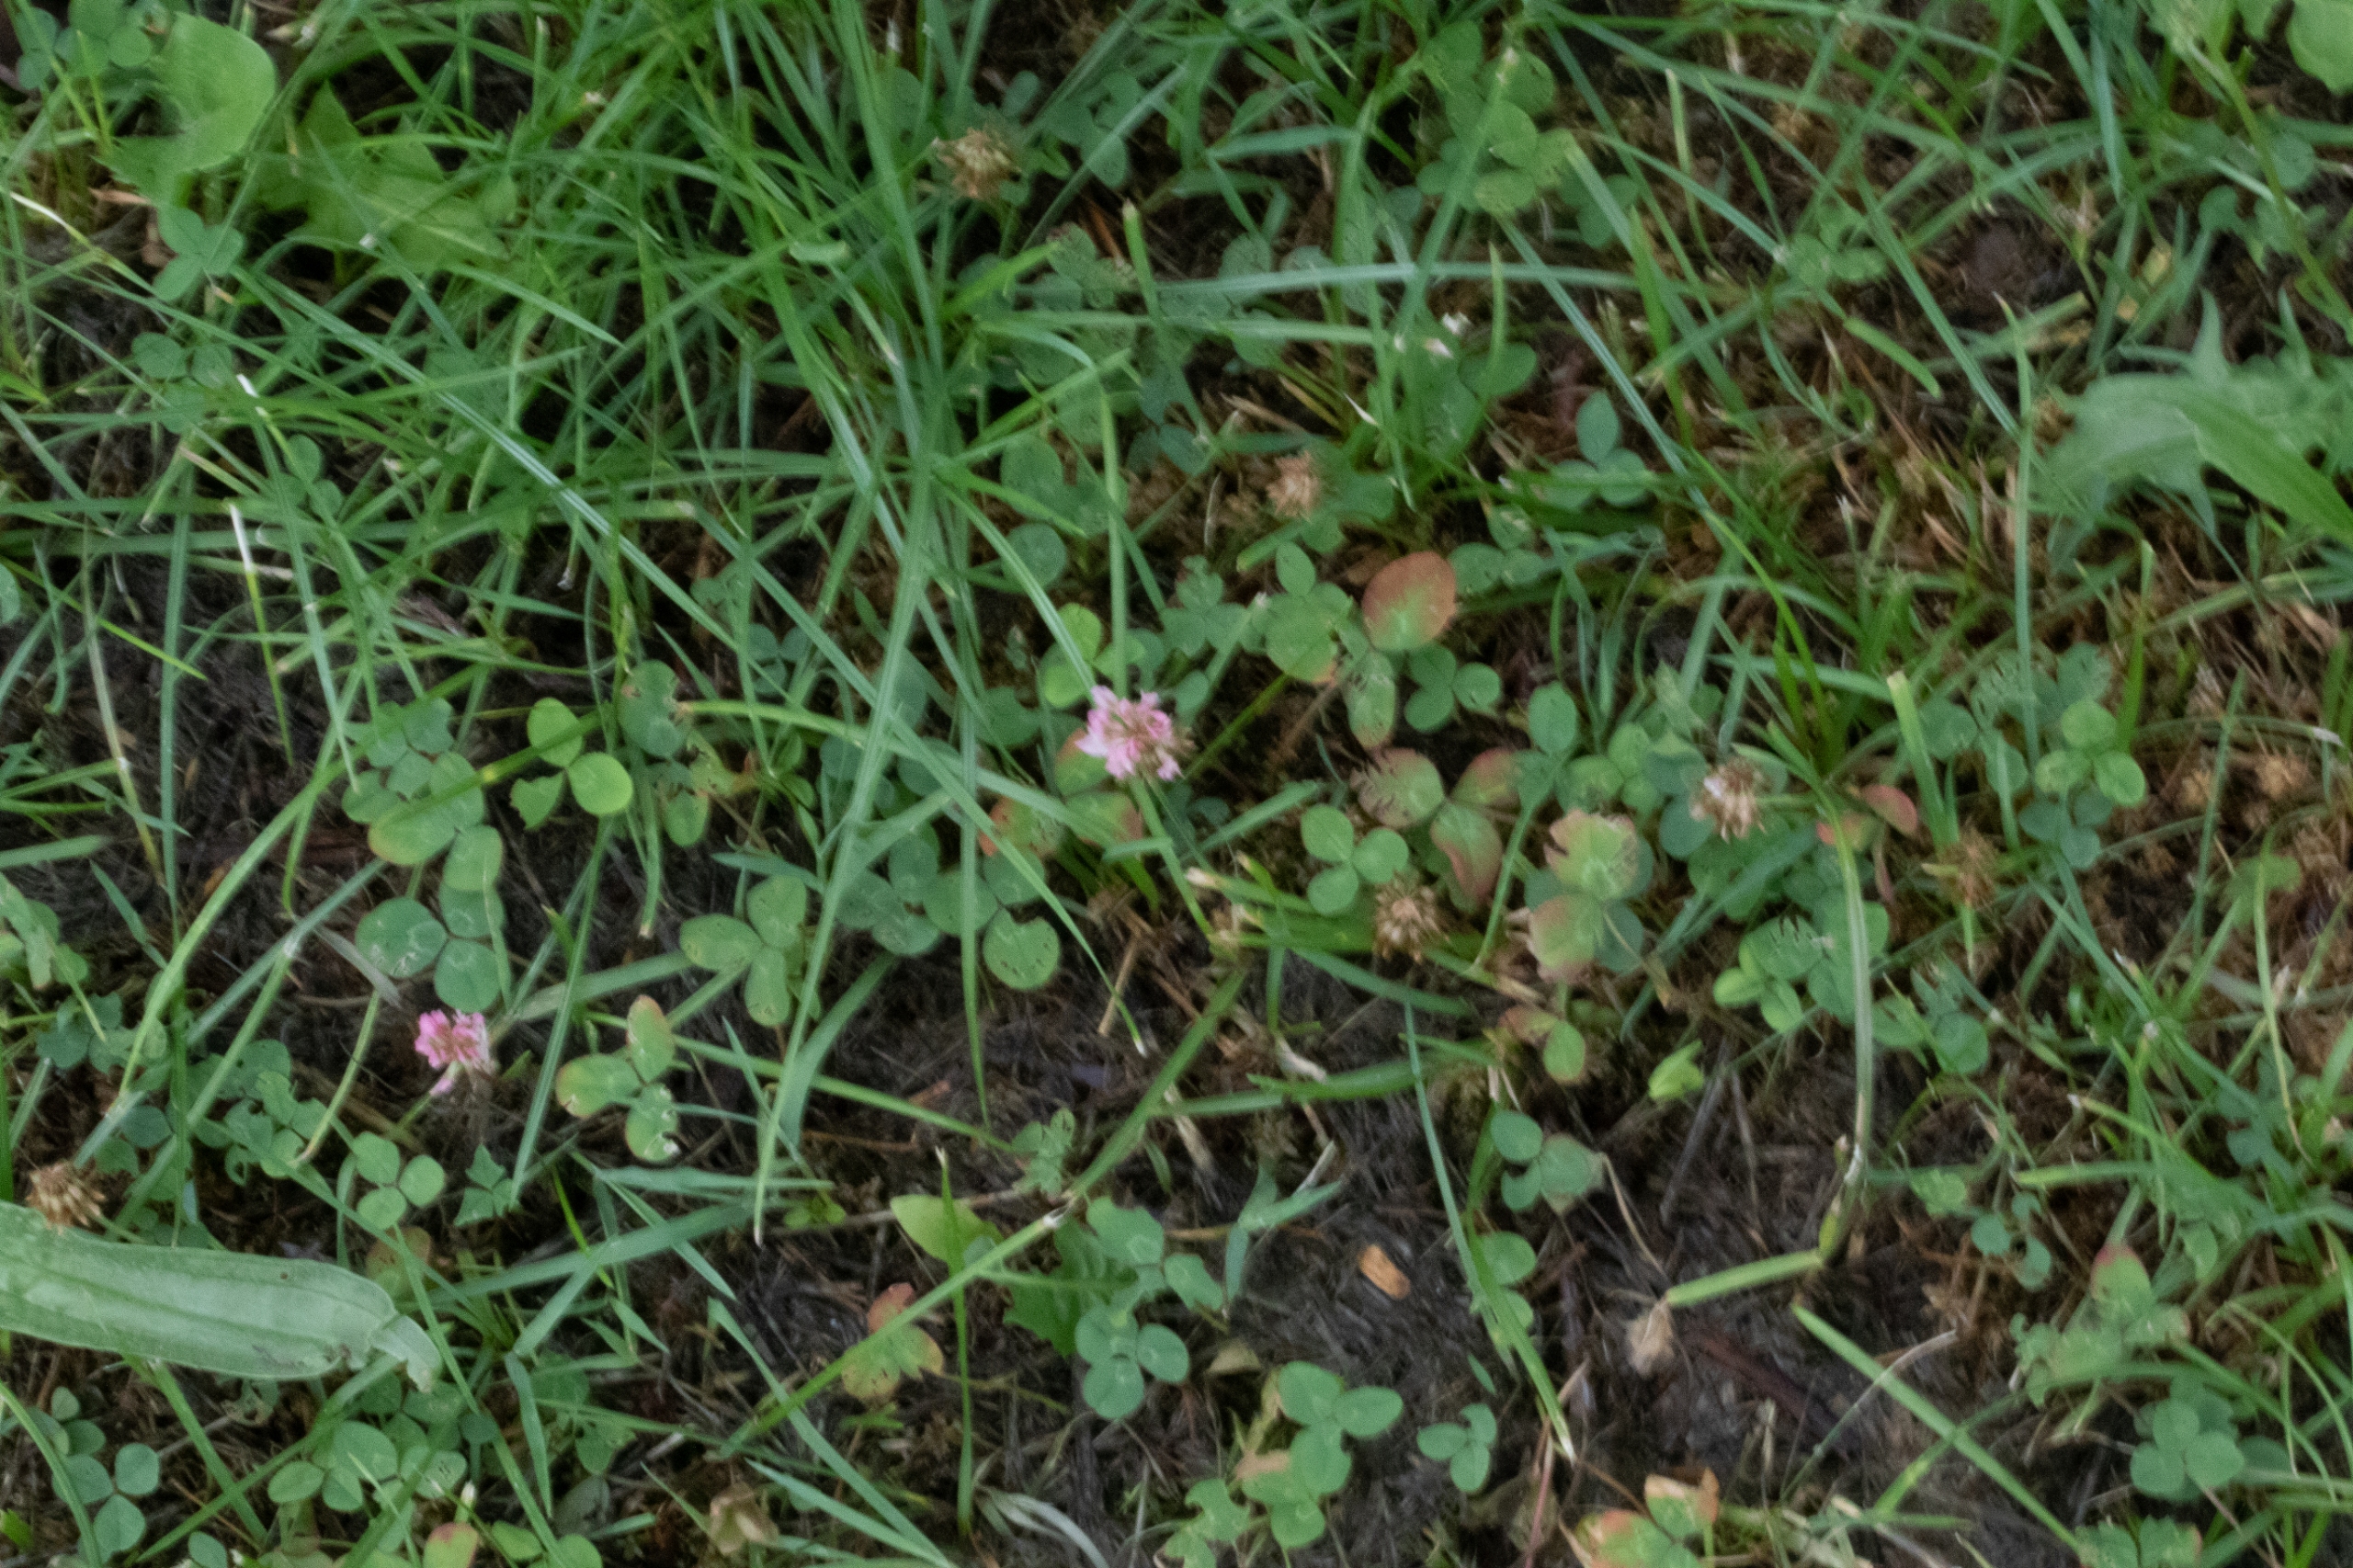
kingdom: Plantae
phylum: Tracheophyta
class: Magnoliopsida
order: Fabales
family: Fabaceae
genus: Trifolium
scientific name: Trifolium pratense
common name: Rød-kløver
